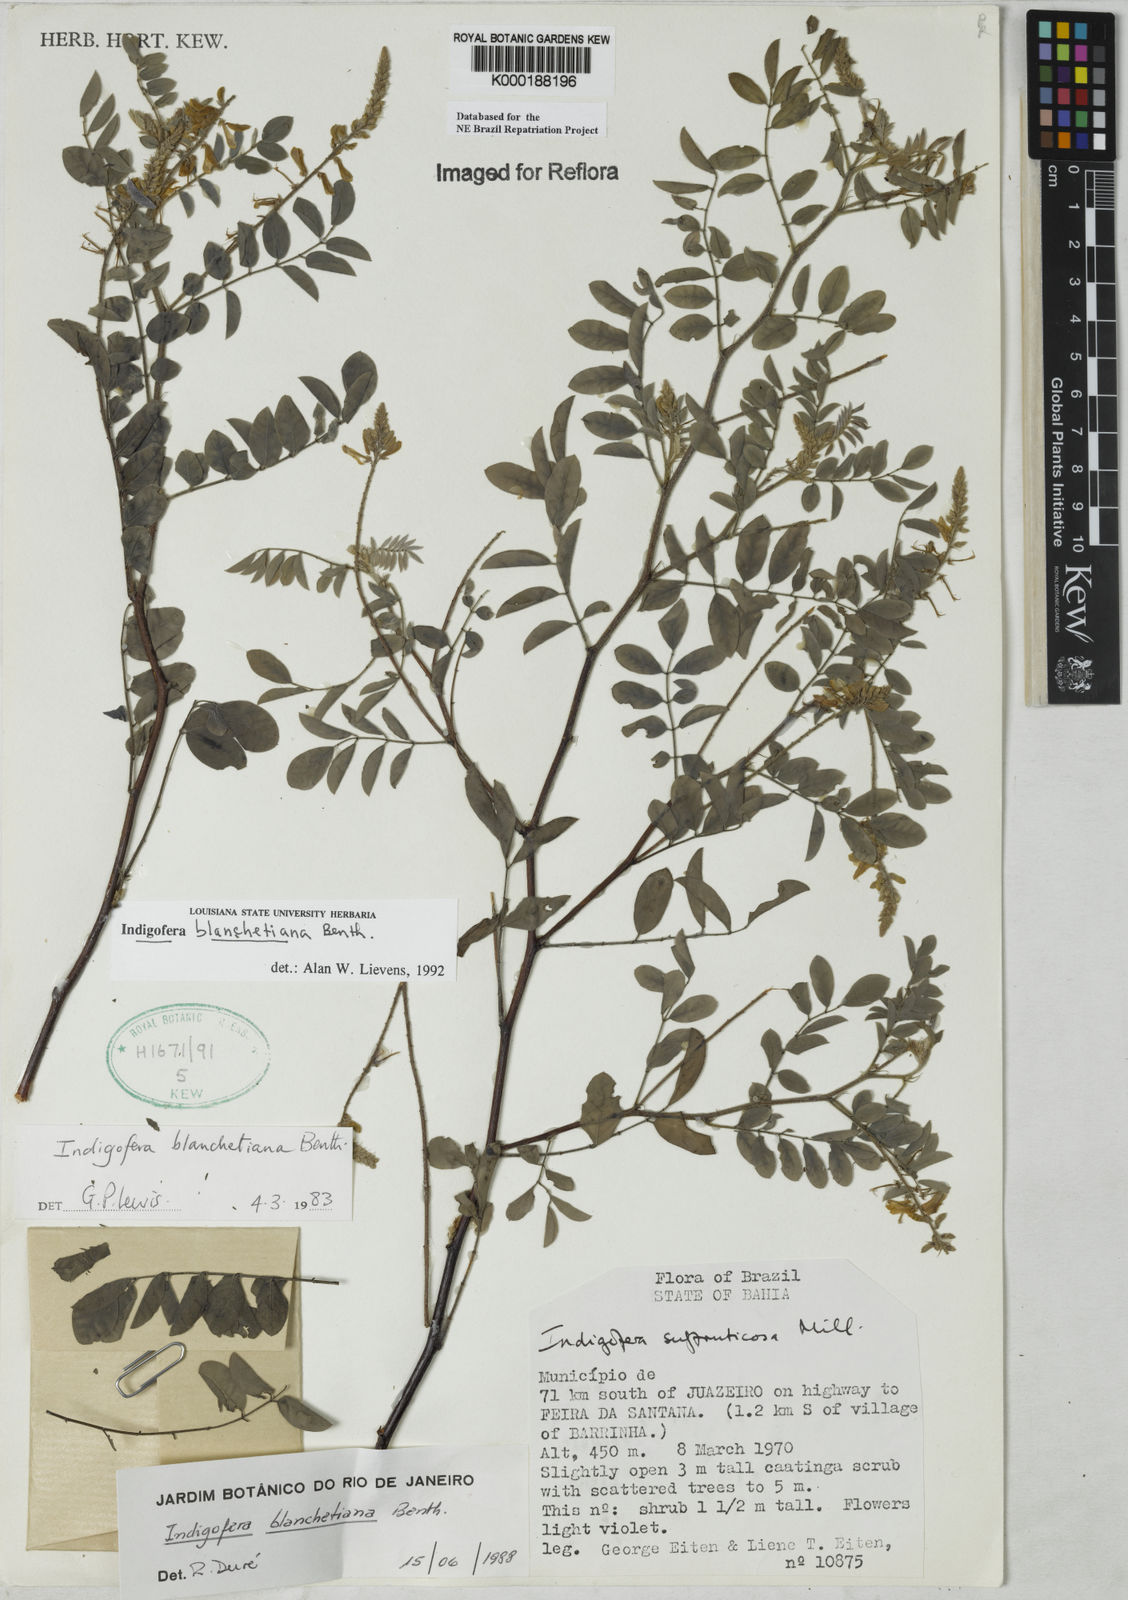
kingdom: Plantae
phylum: Tracheophyta
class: Magnoliopsida
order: Fabales
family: Fabaceae
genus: Indigofera
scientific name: Indigofera blanchetiana
